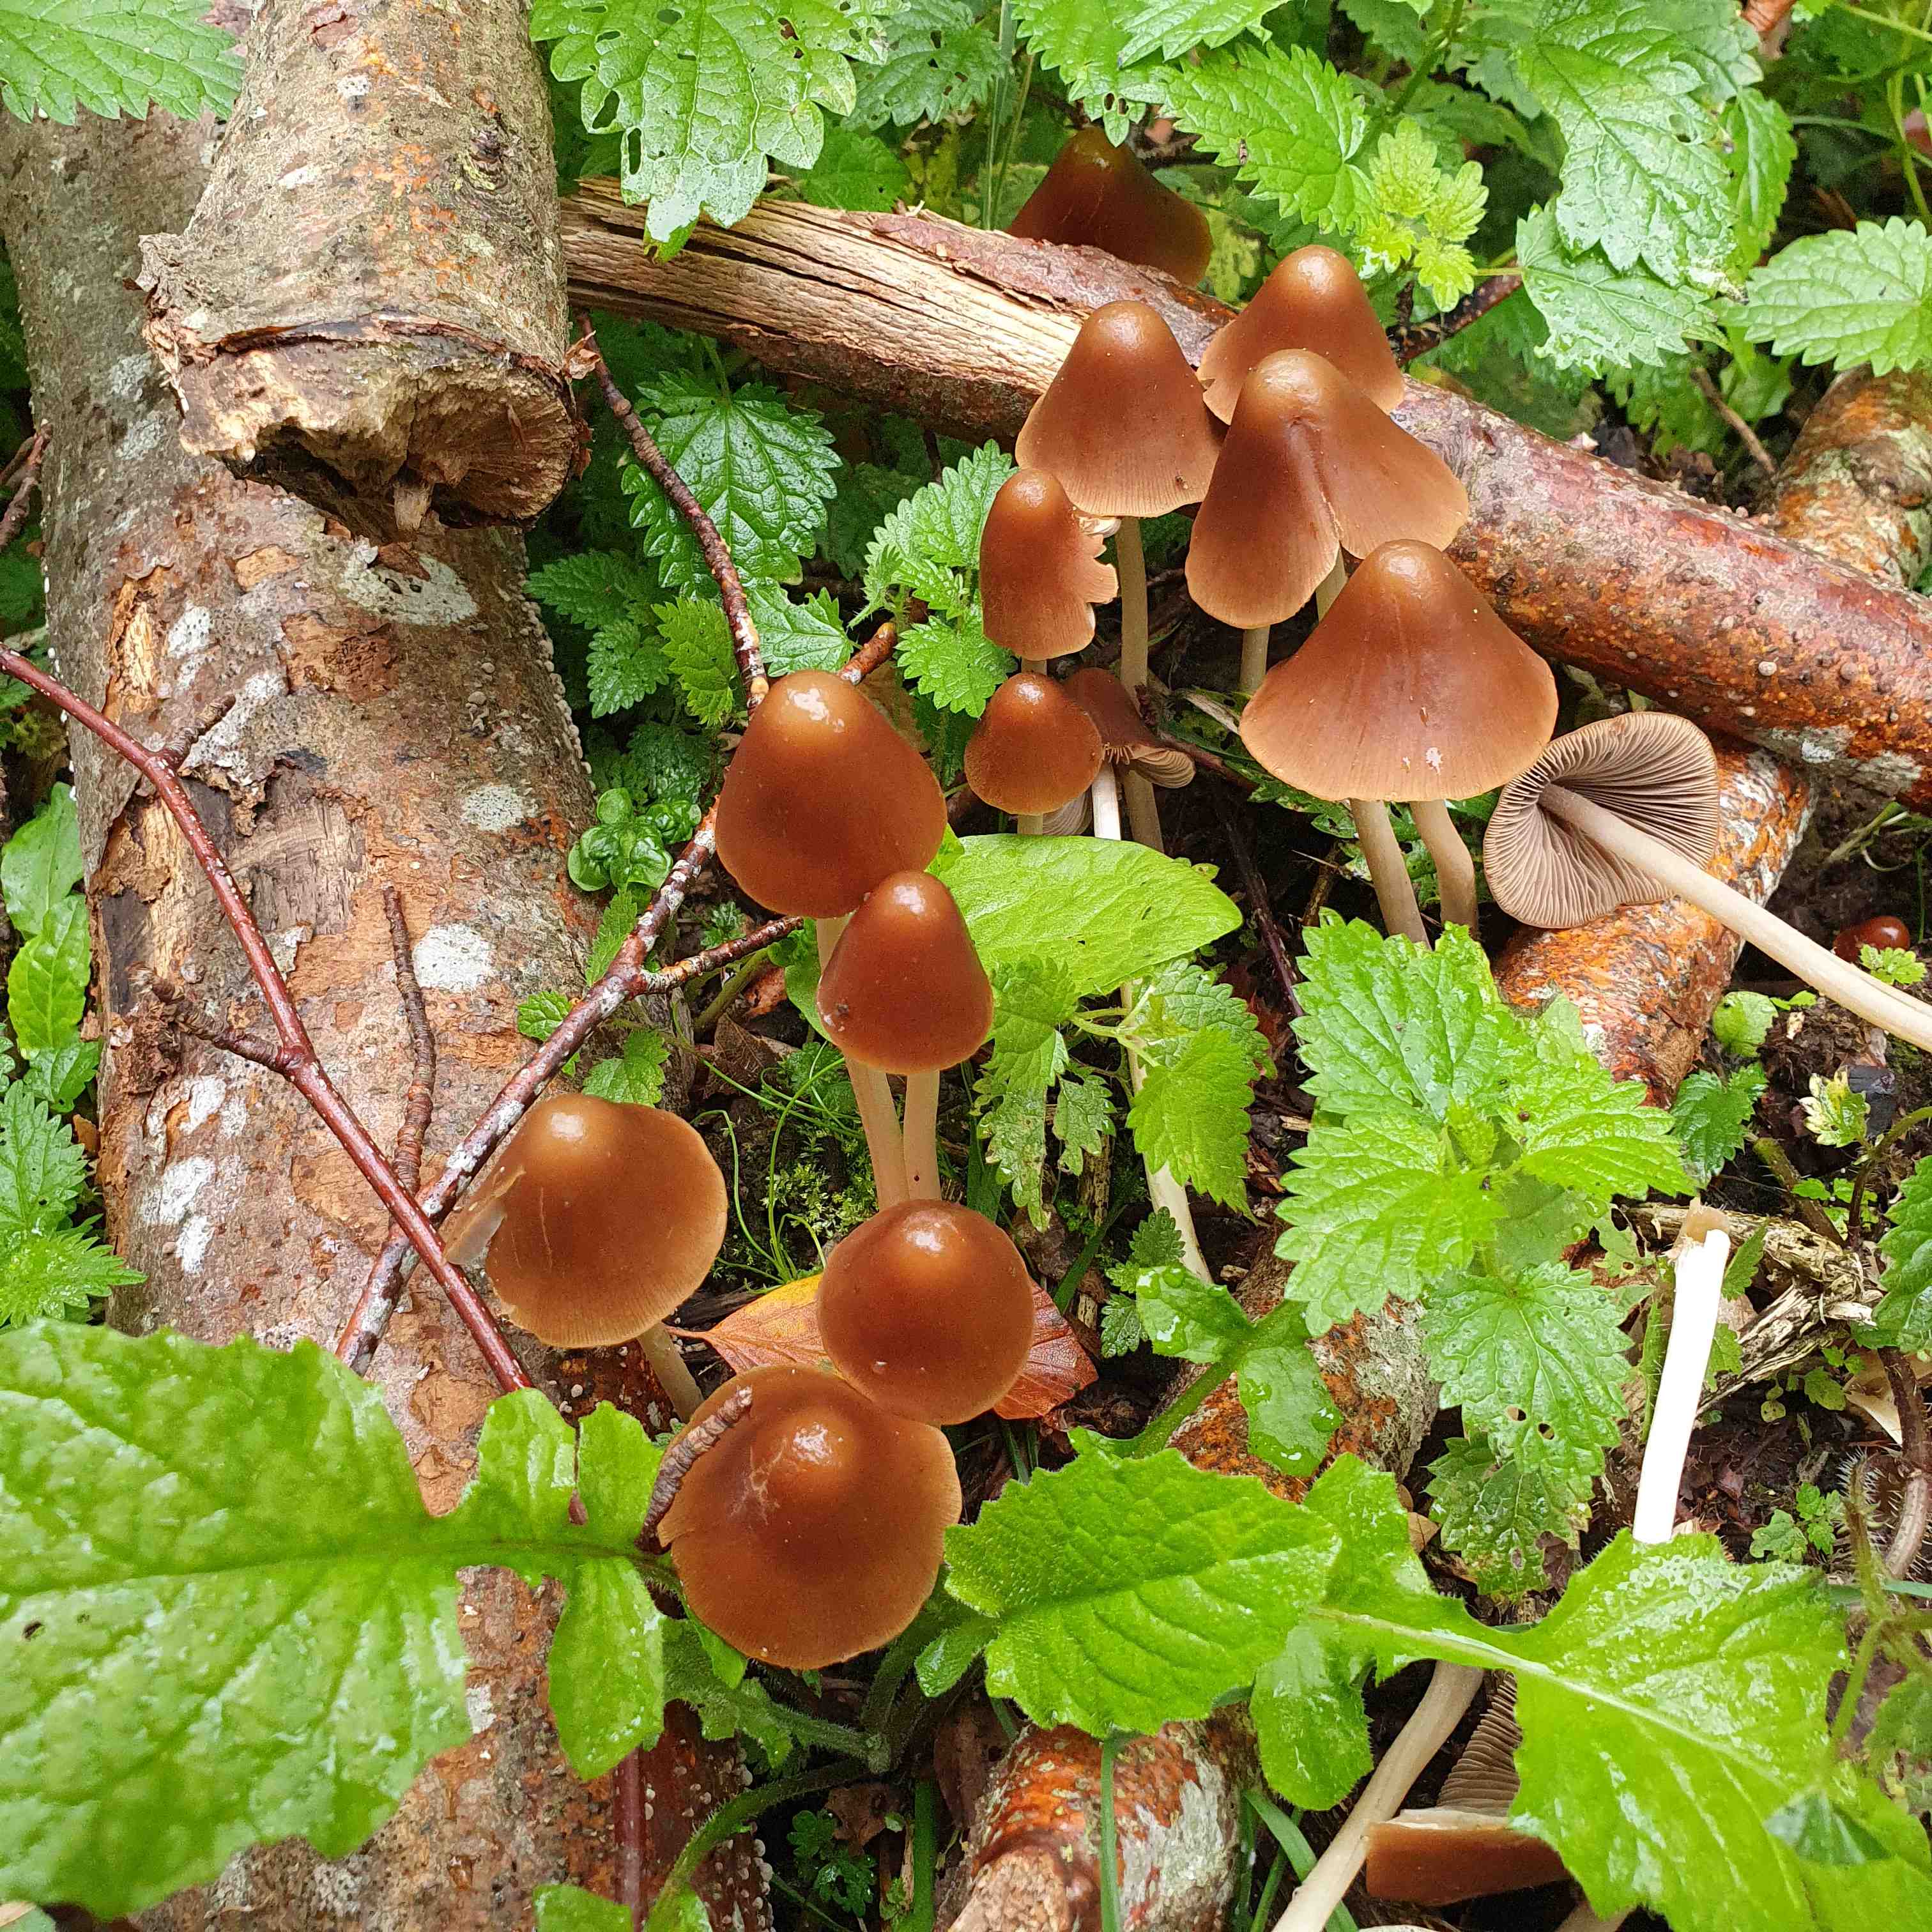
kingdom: Fungi
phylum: Basidiomycota
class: Agaricomycetes
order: Agaricales
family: Psathyrellaceae
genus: Parasola
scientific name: Parasola conopilea
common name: kegle-hjulhat
